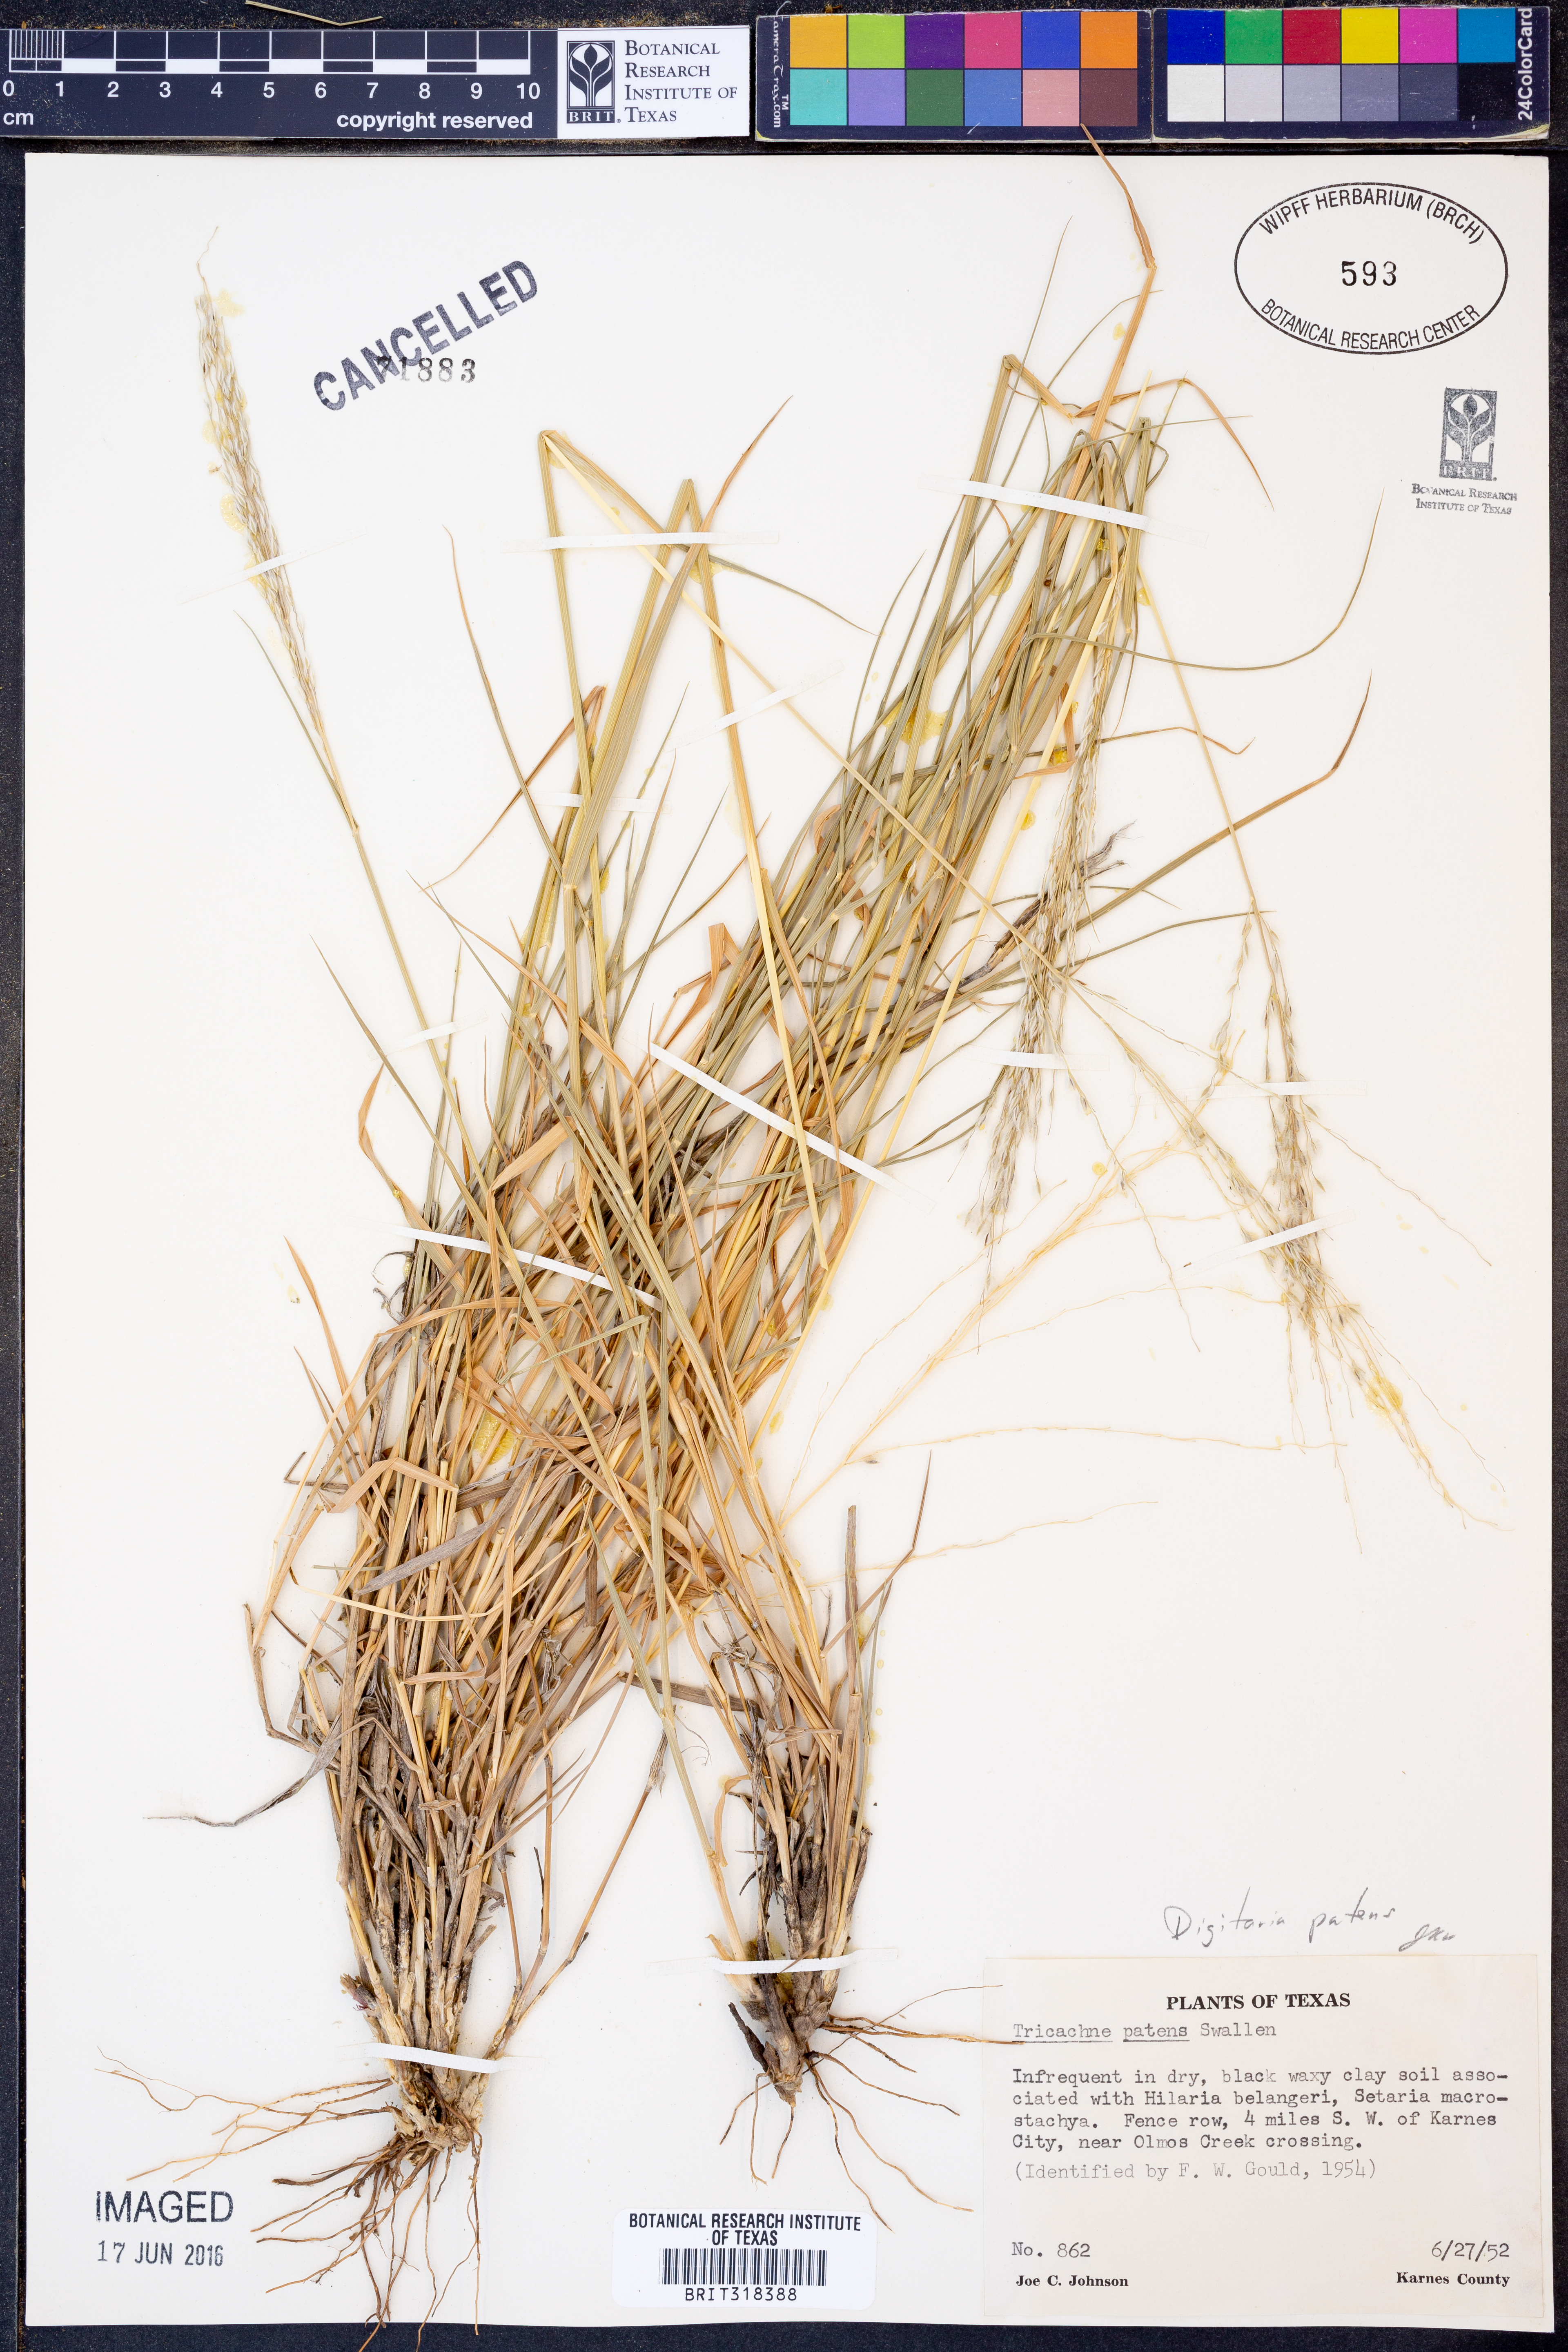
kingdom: Plantae
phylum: Tracheophyta
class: Liliopsida
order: Poales
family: Poaceae
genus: Digitaria
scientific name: Digitaria patens
